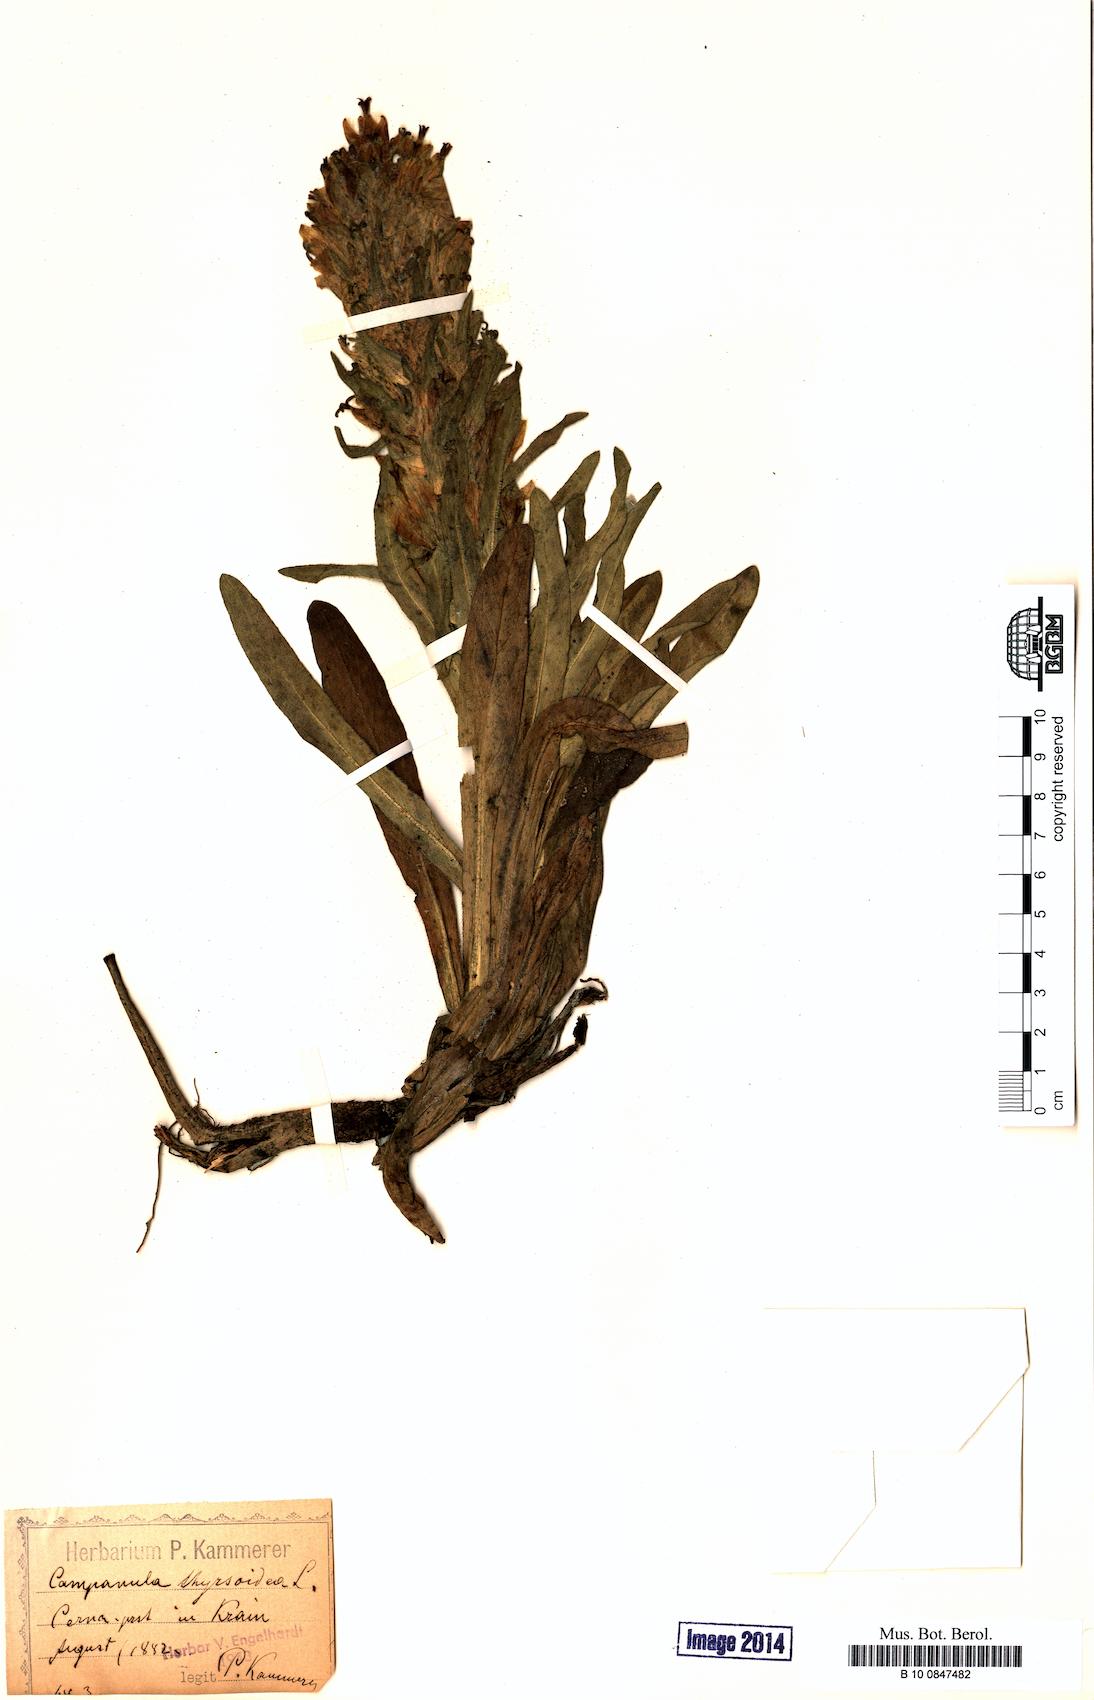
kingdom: Plantae
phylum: Tracheophyta
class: Magnoliopsida
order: Asterales
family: Campanulaceae
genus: Campanula
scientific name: Campanula thyrsoides
